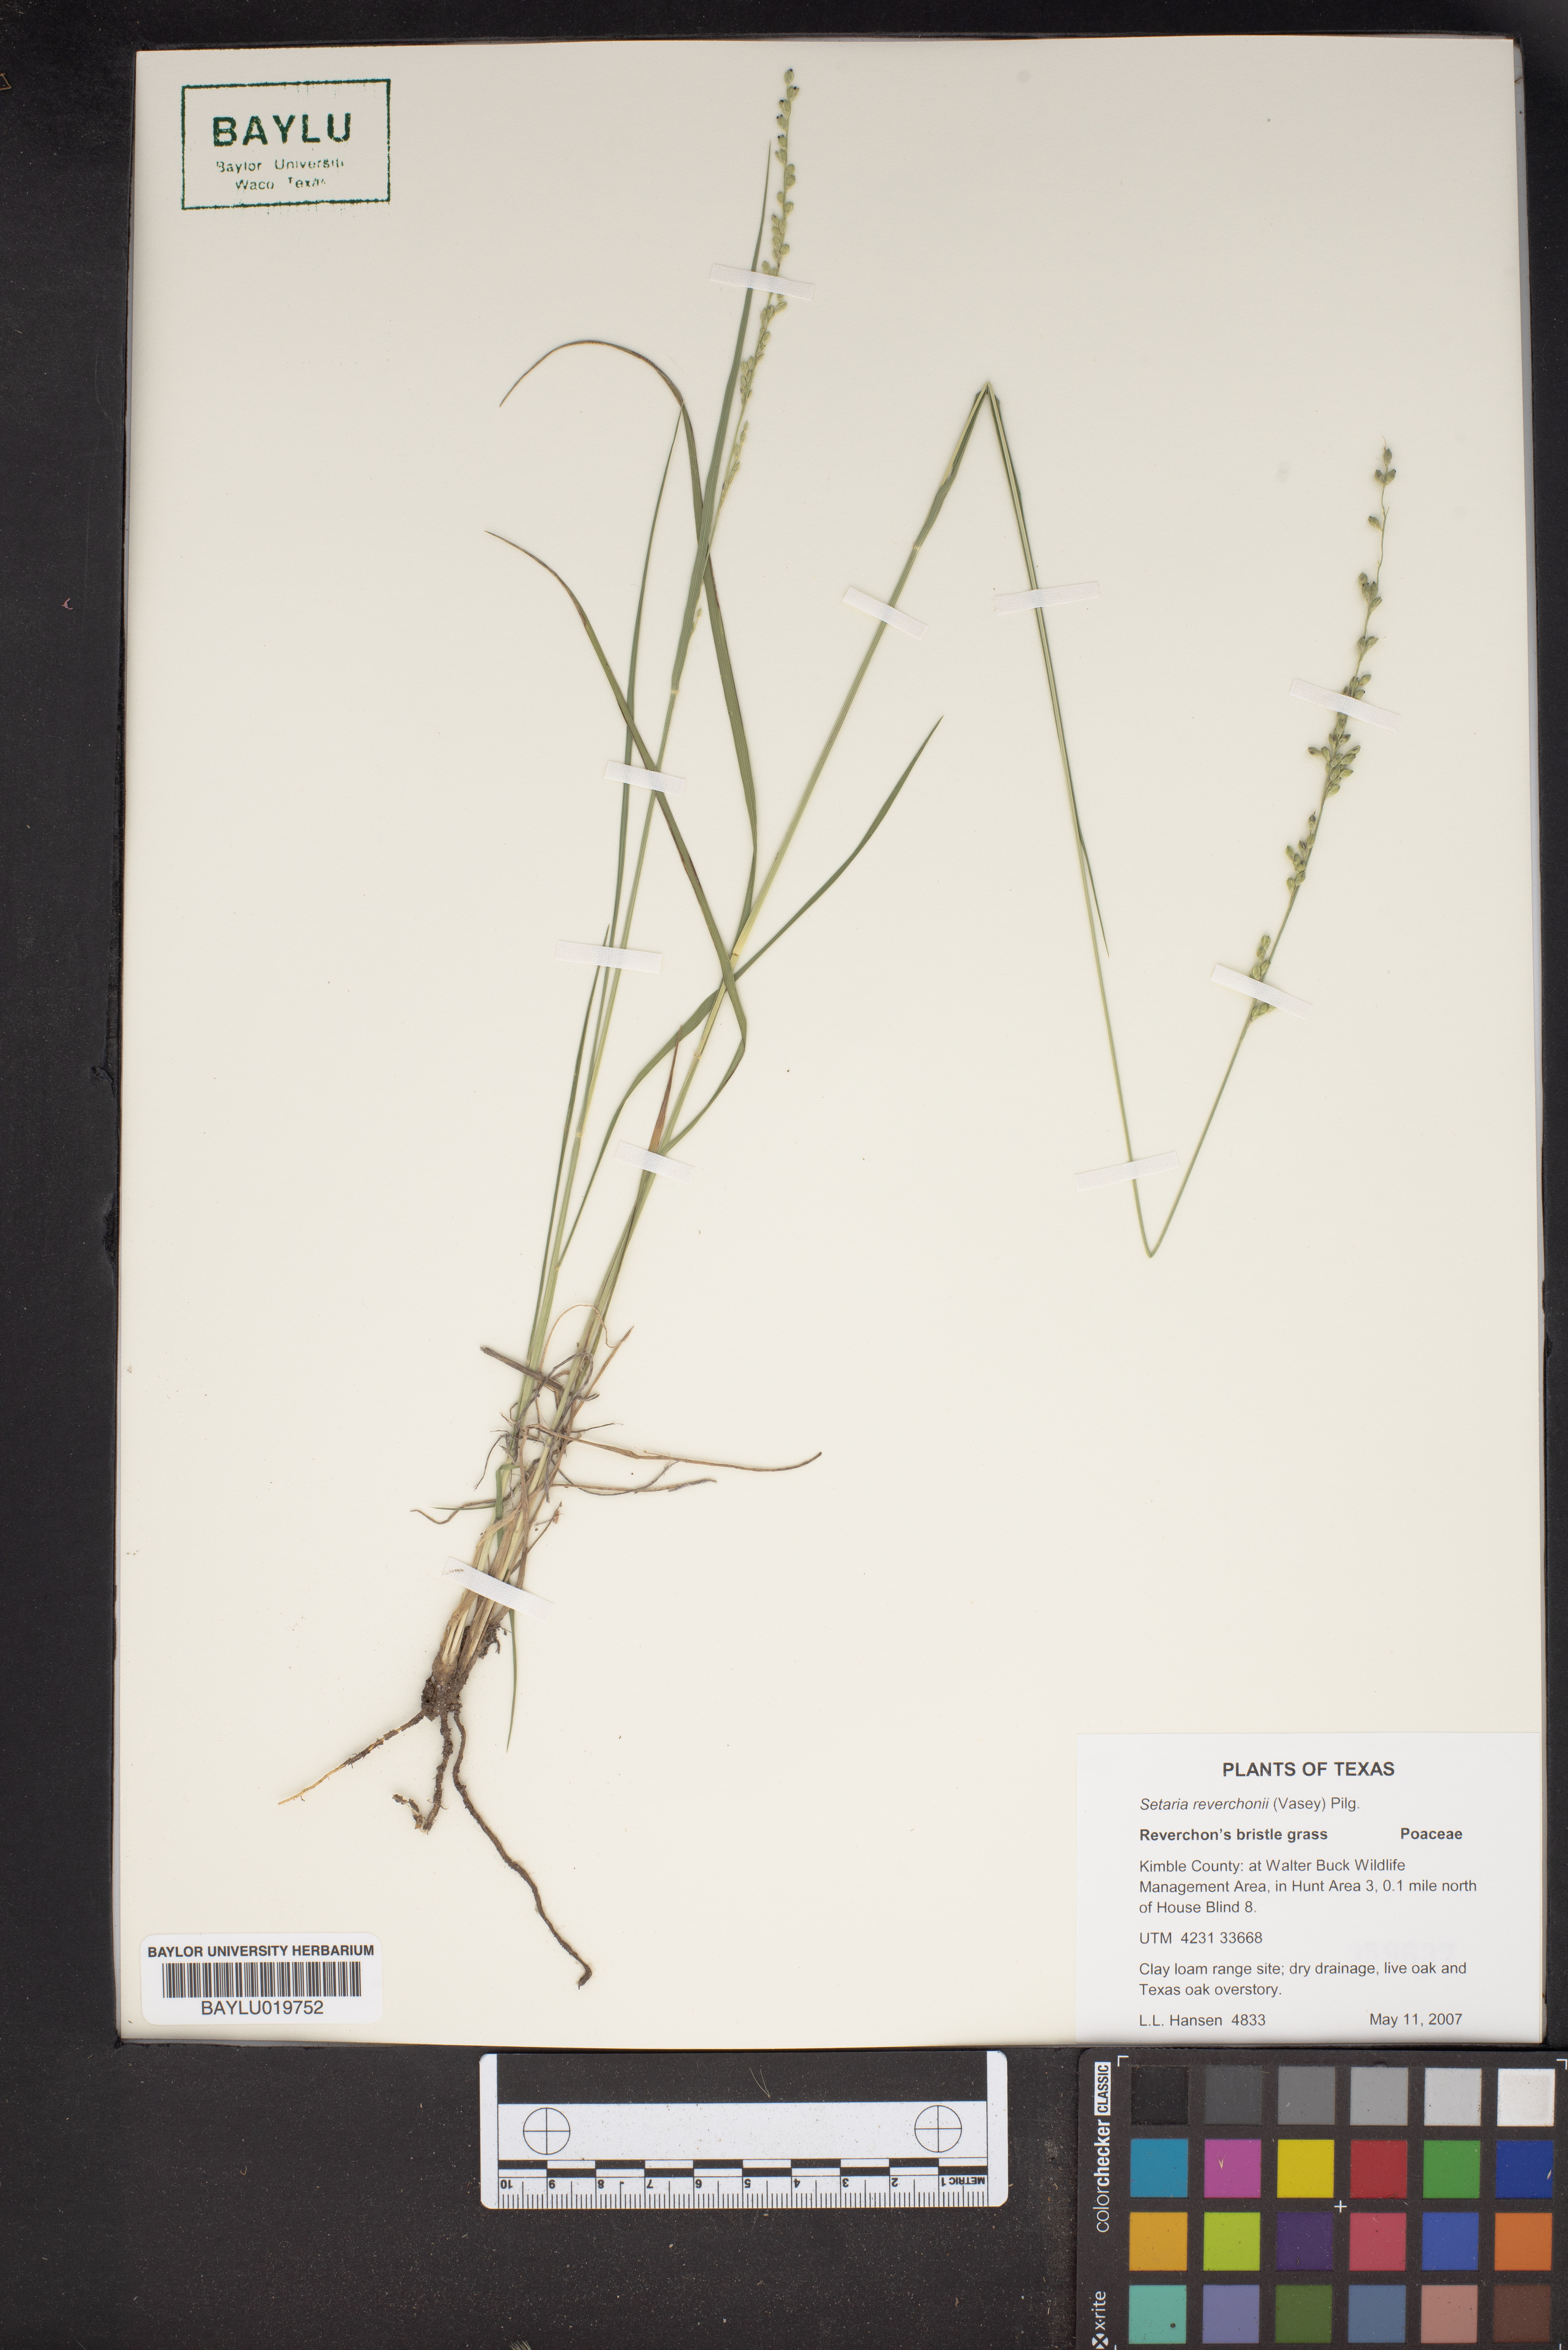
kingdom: Plantae
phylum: Tracheophyta
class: Liliopsida
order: Poales
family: Poaceae
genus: Setaria
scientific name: Setaria reverchonii
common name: Reverchon's bristle grass
